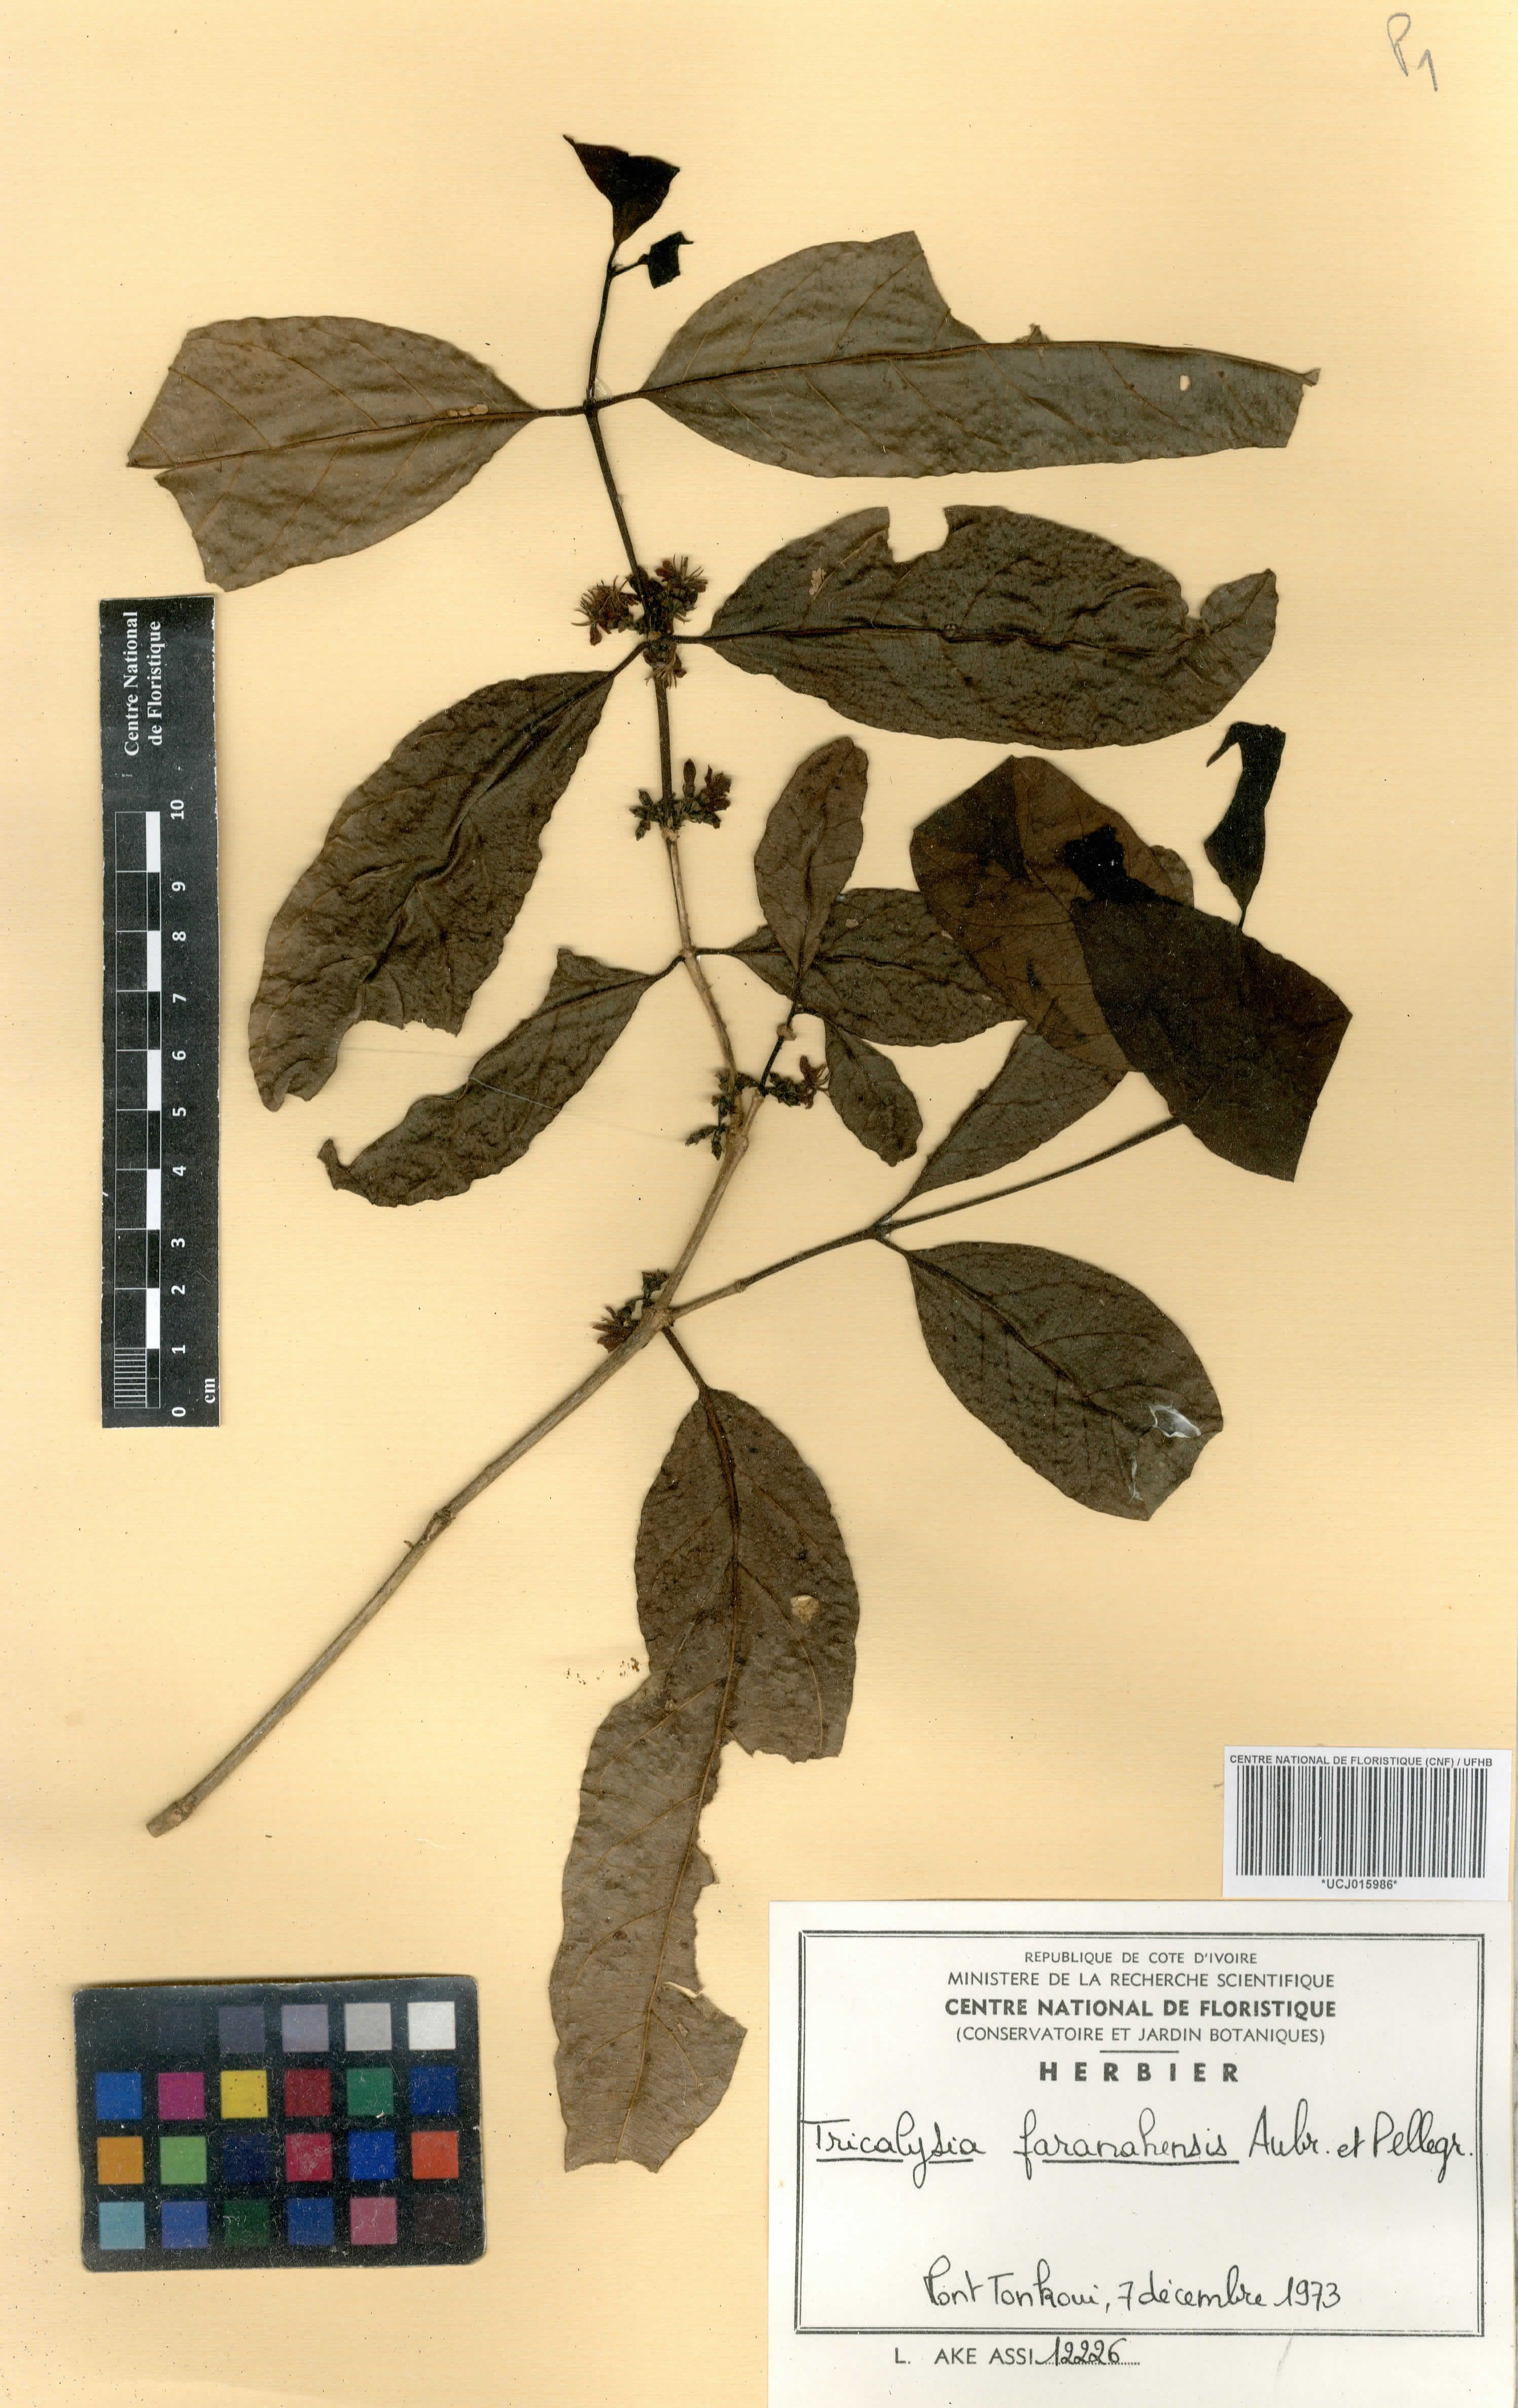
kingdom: Plantae
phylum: Tracheophyta
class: Magnoliopsida
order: Gentianales
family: Rubiaceae
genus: Tricalysia
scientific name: Tricalysia faranahensis
